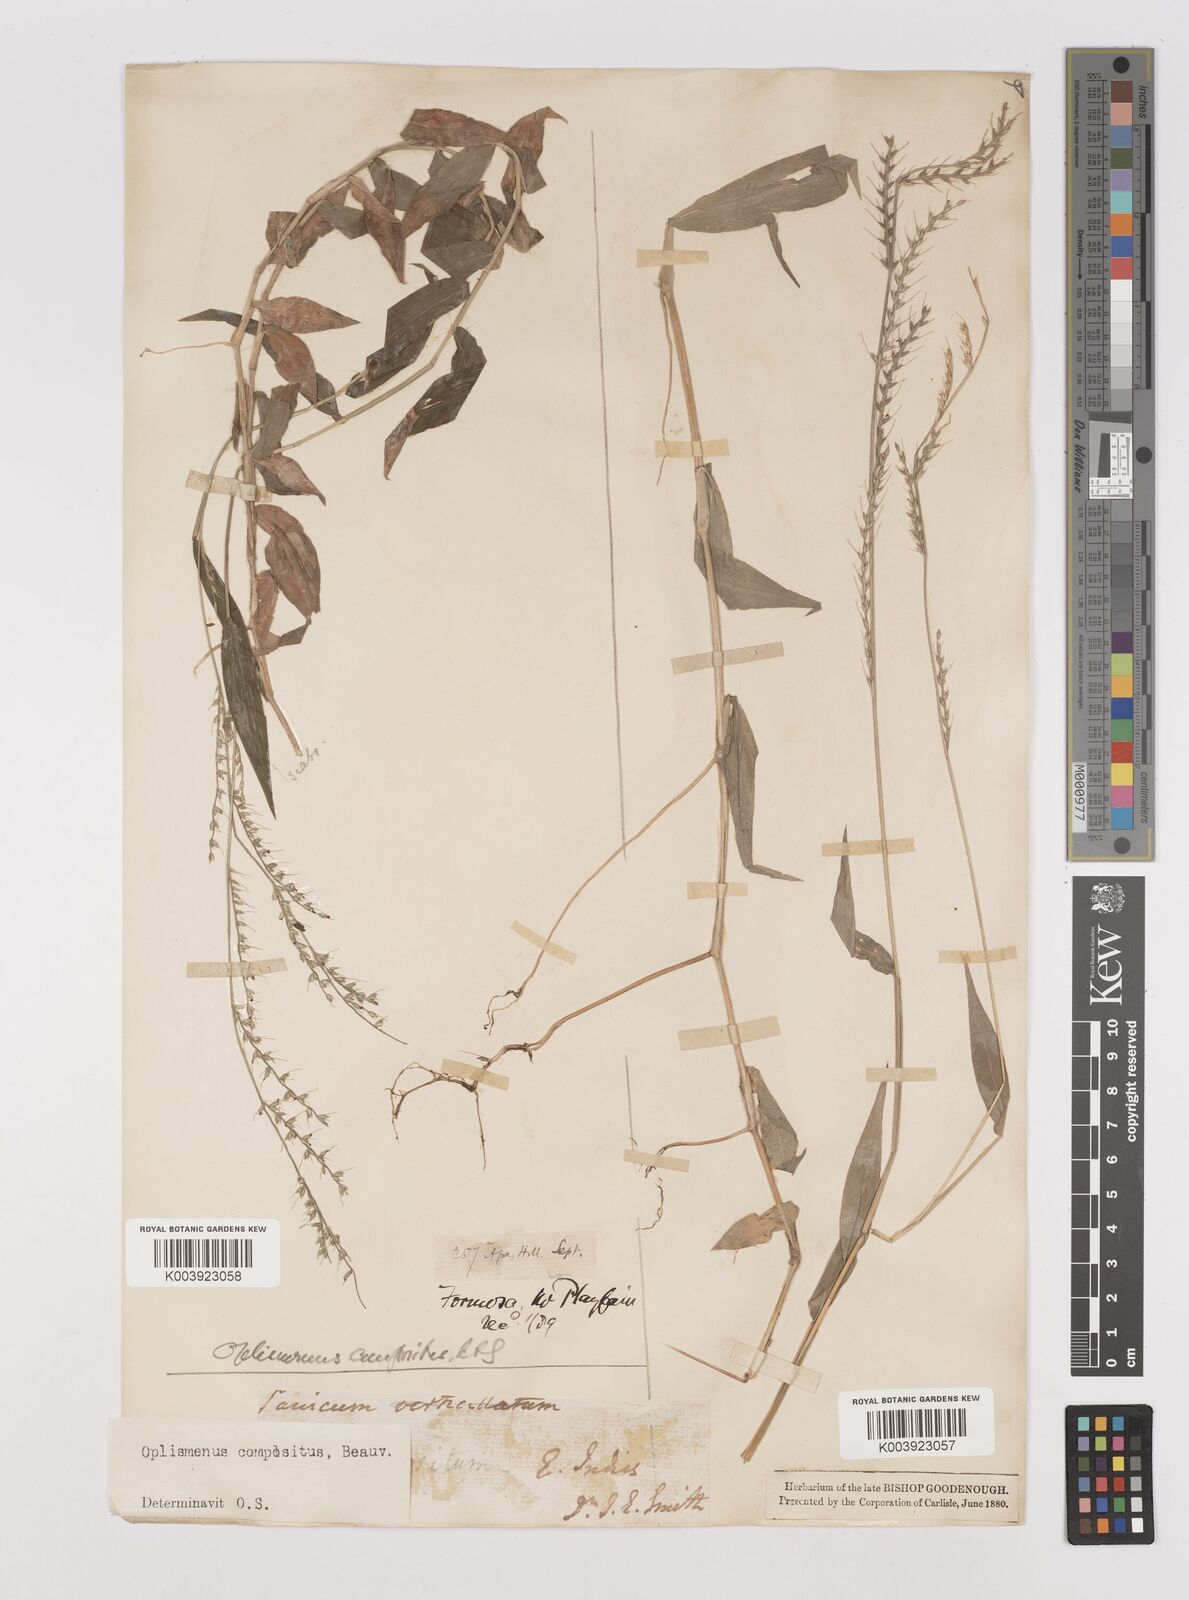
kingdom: Plantae
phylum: Tracheophyta
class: Liliopsida
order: Poales
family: Poaceae
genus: Oplismenus
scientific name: Oplismenus compositus
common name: Running mountain grass
